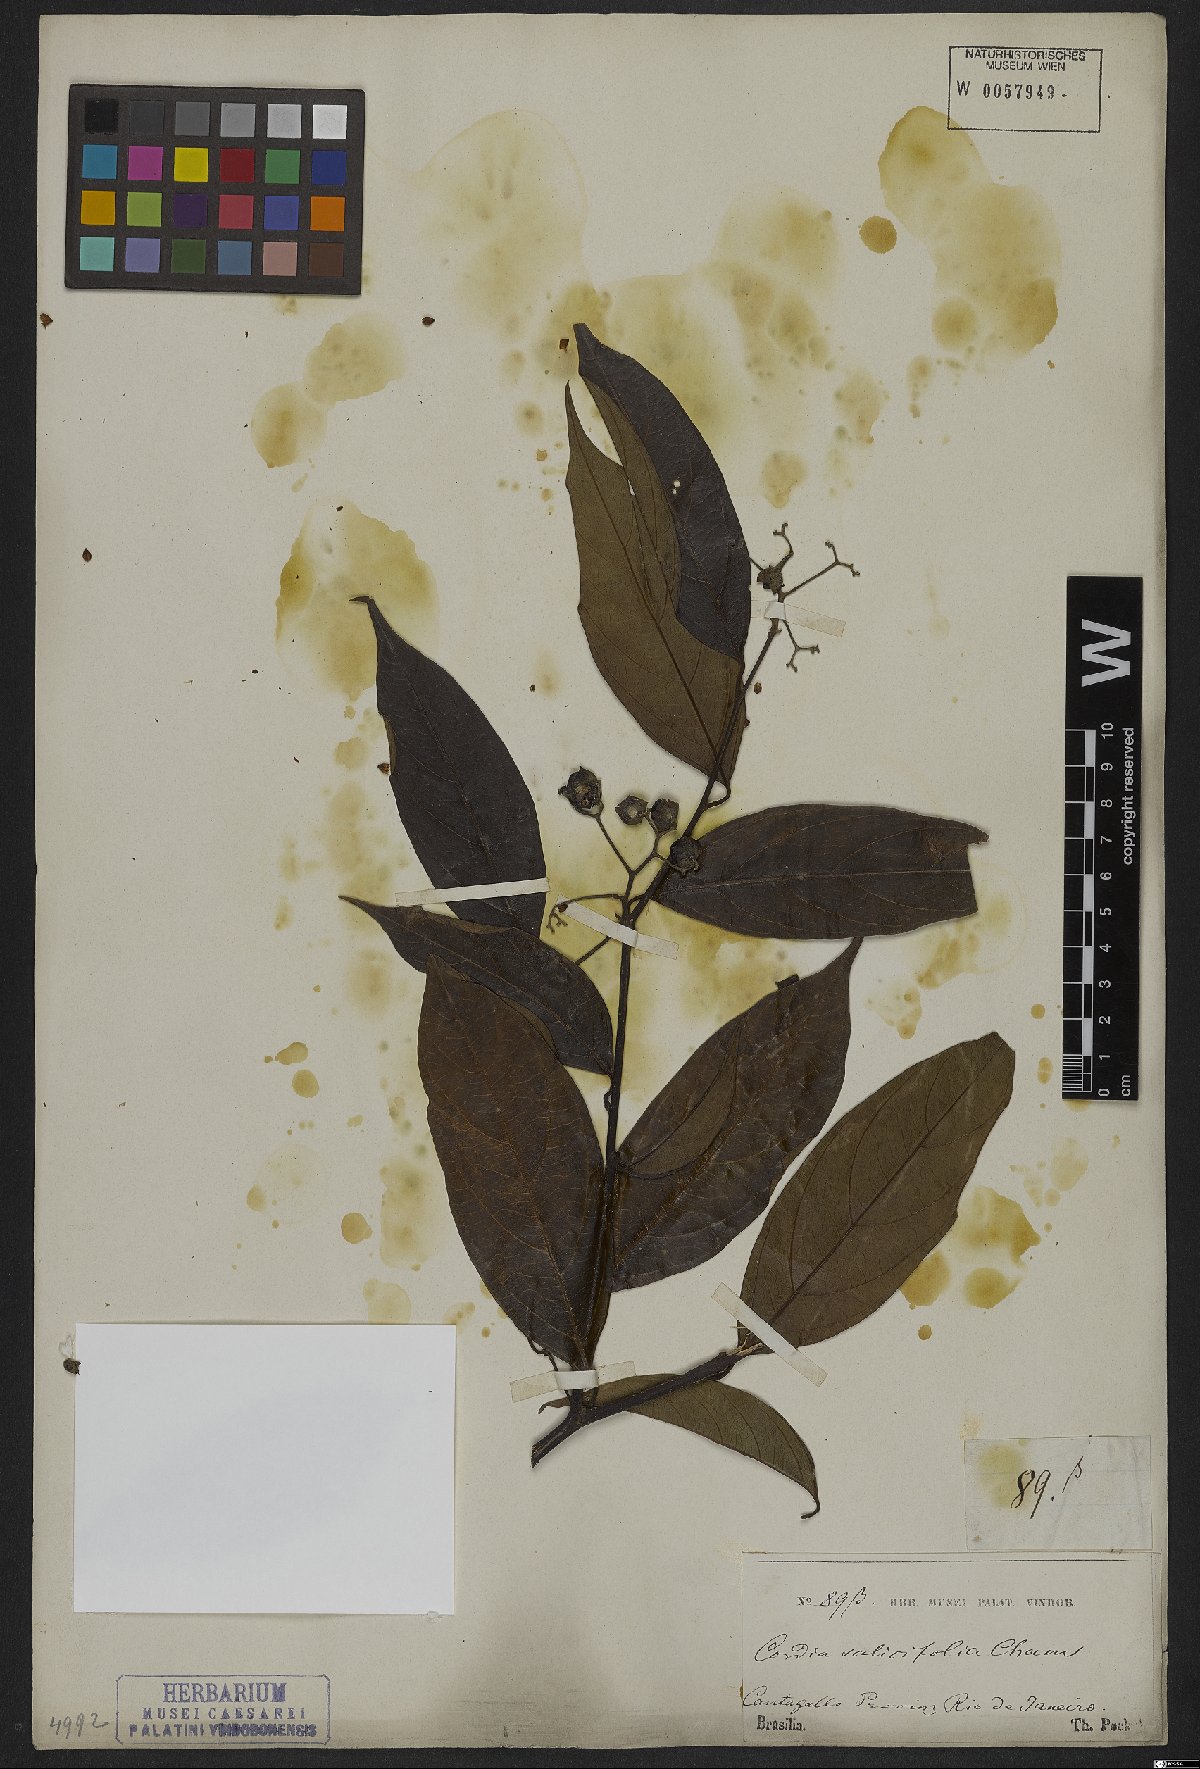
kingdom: Plantae
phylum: Tracheophyta
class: Magnoliopsida
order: Boraginales
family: Cordiaceae
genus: Cordia
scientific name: Cordia ecalyculata
